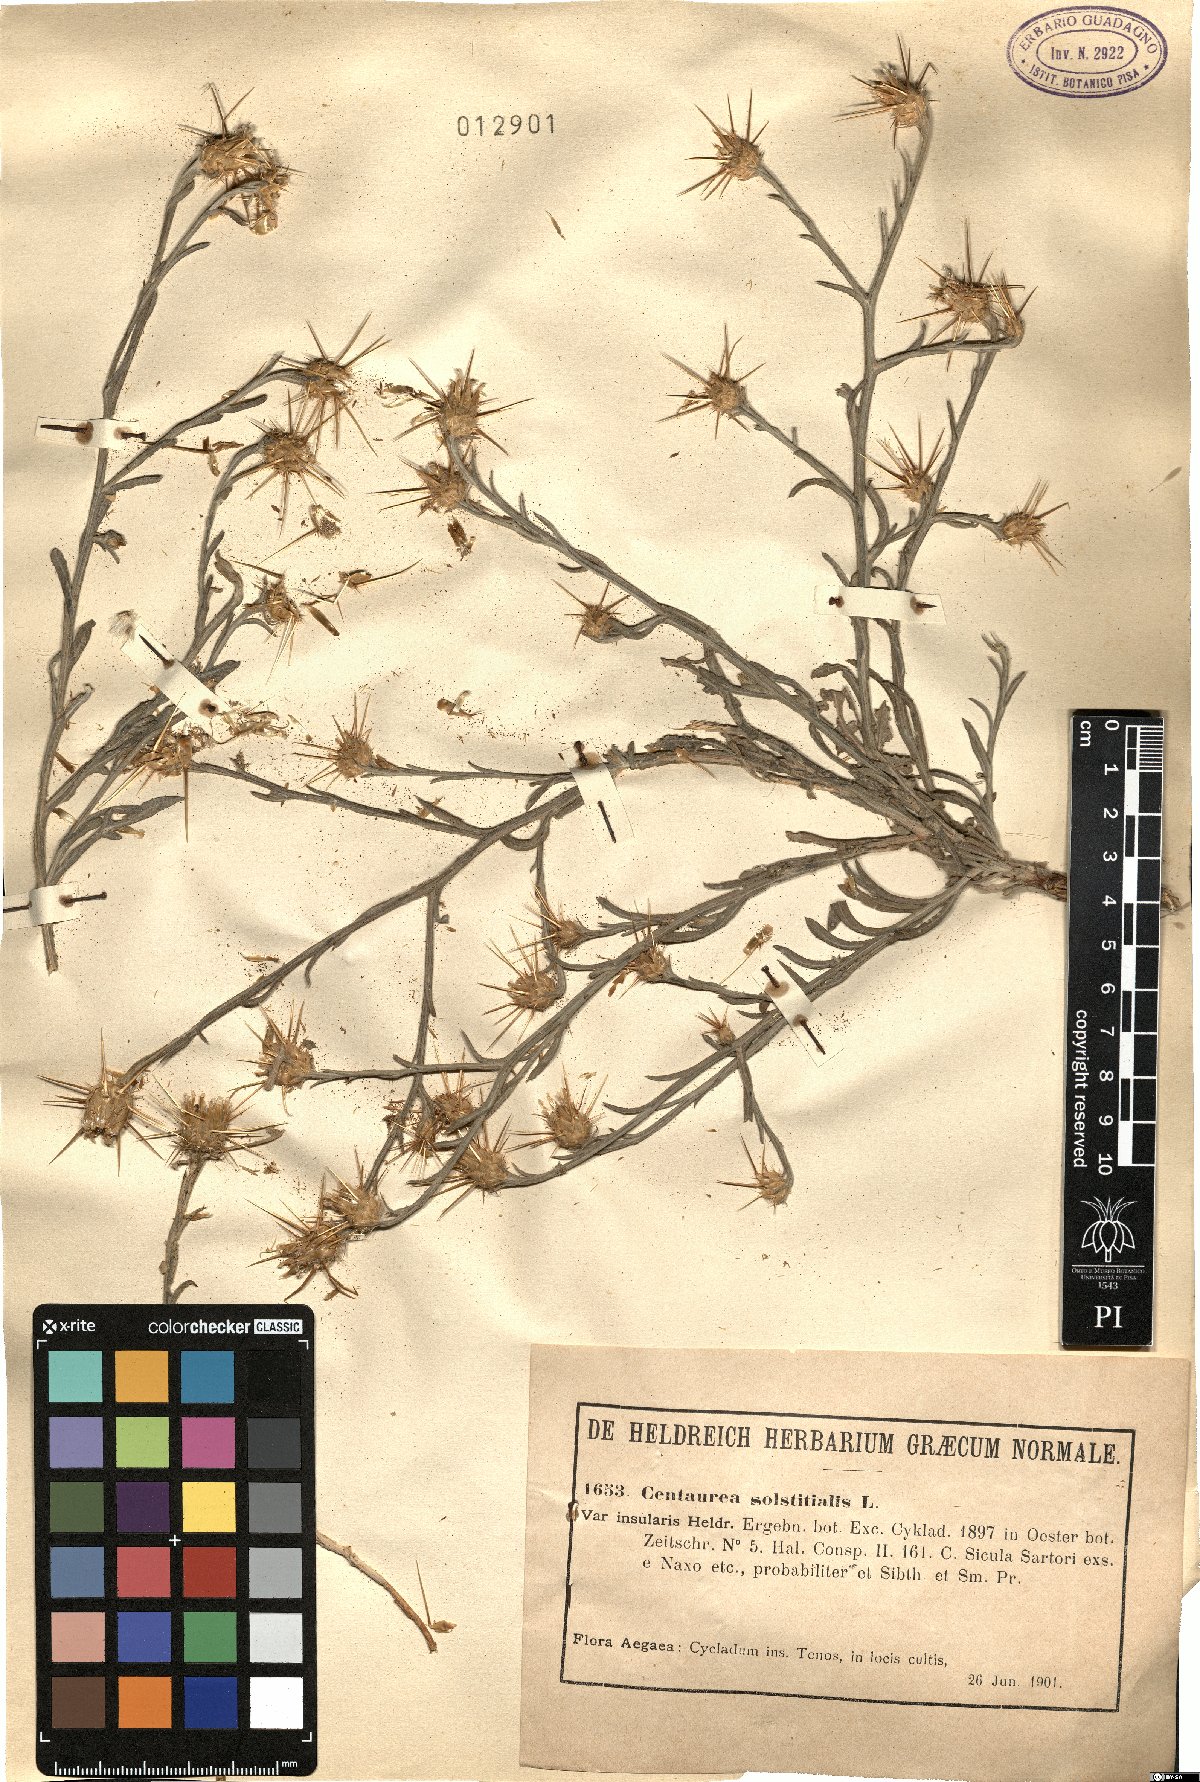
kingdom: Plantae
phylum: Tracheophyta
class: Magnoliopsida
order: Asterales
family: Asteraceae
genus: Centaurea
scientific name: Centaurea solstitialis
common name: Yellow star-thistle
